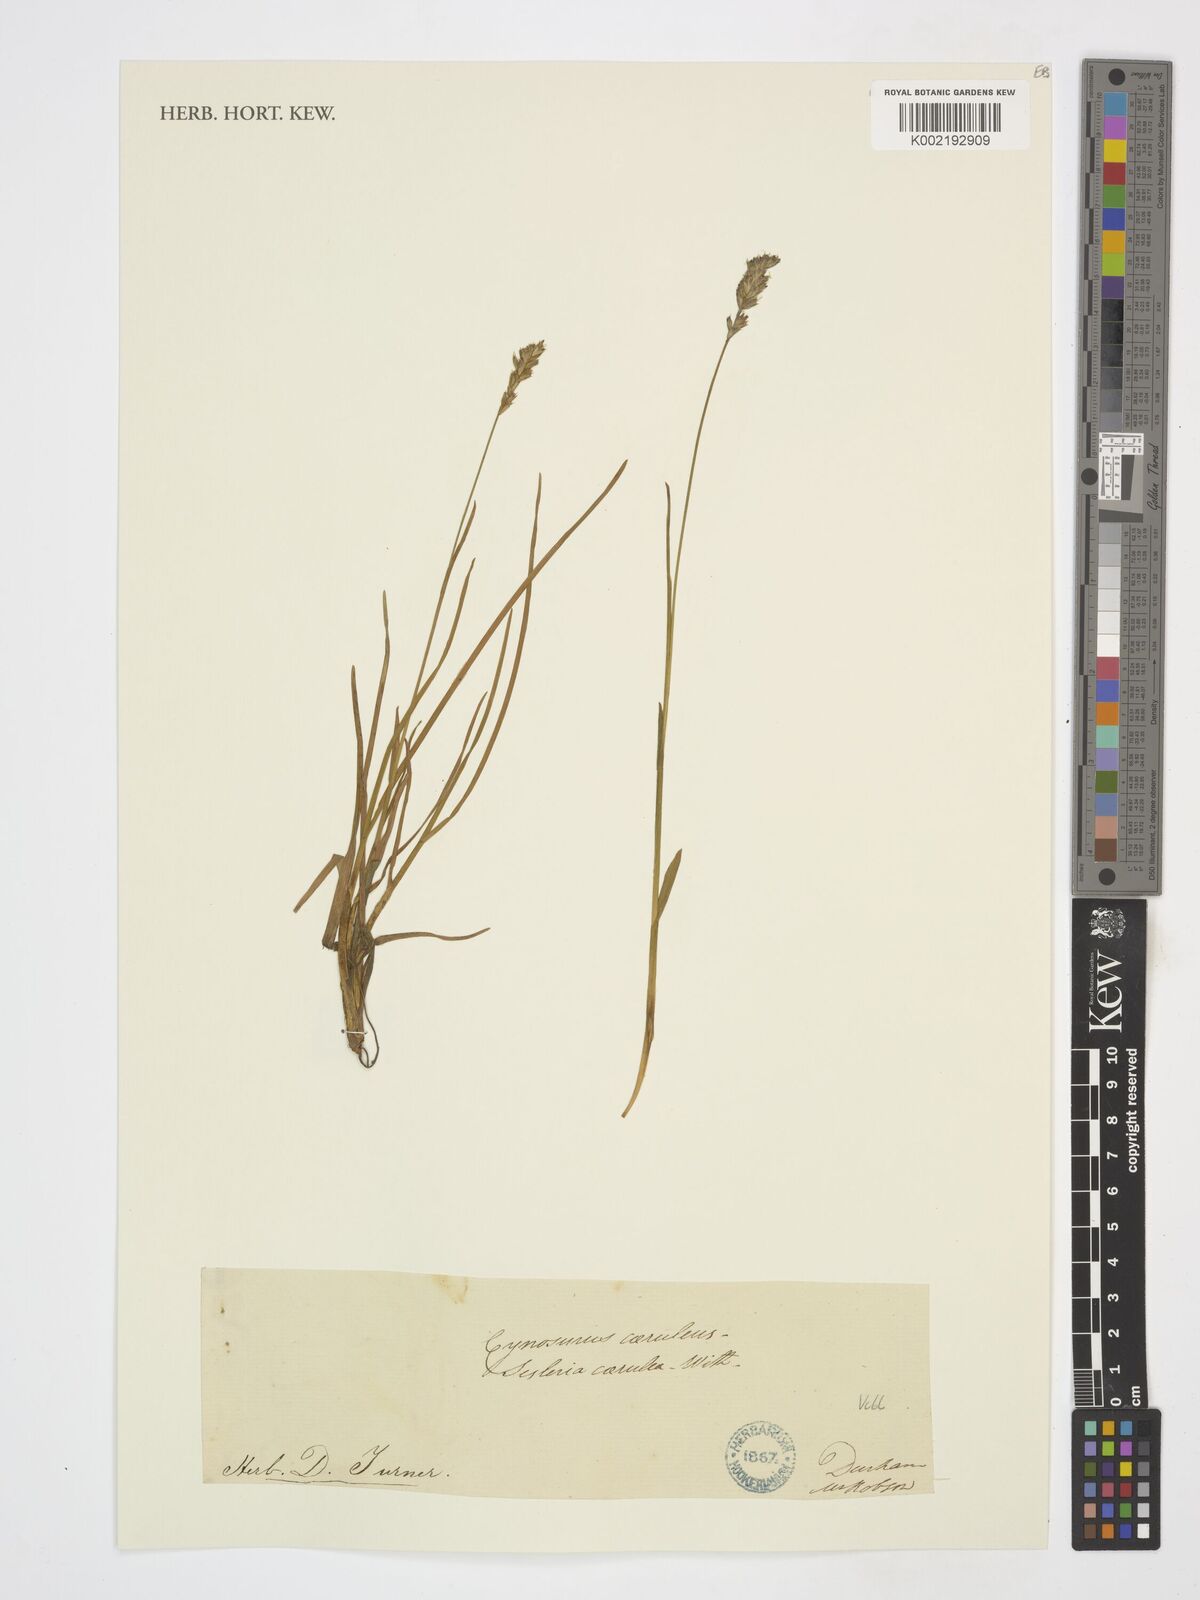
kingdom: Plantae
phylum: Tracheophyta
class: Liliopsida
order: Poales
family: Poaceae
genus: Sesleria
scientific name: Sesleria caerulea
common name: Blue moor-grass
